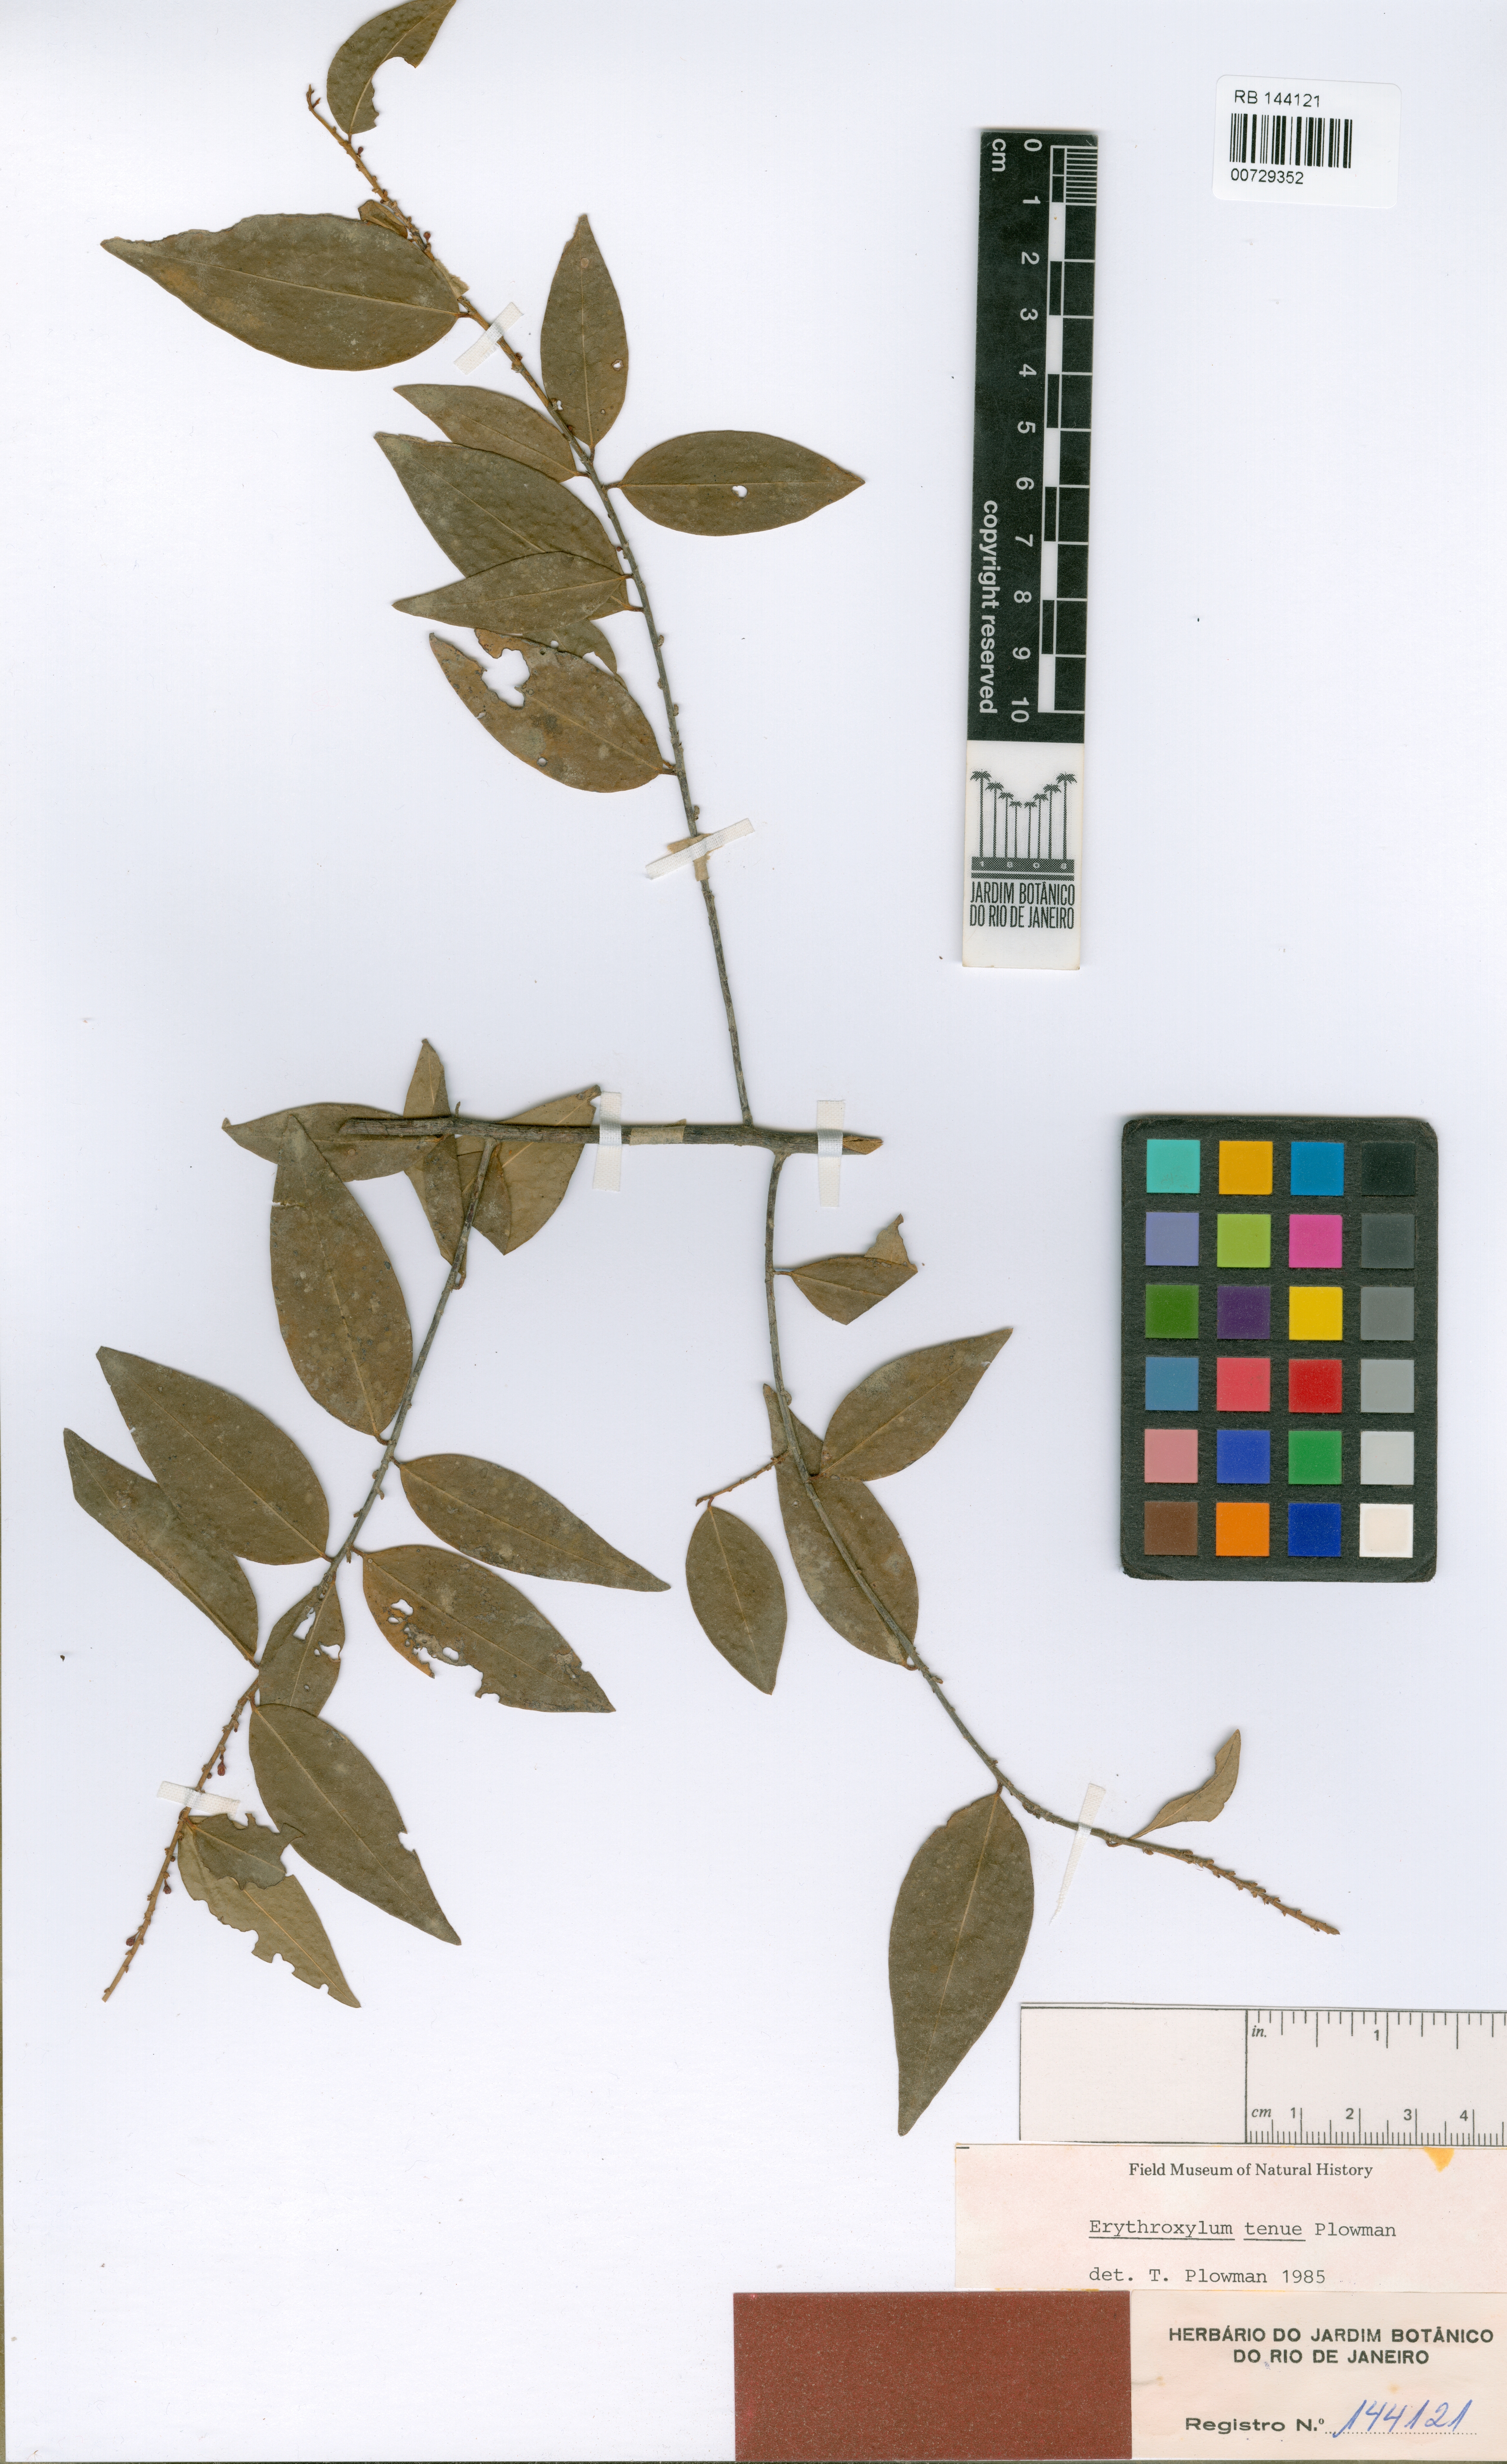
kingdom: Plantae
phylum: Tracheophyta
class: Magnoliopsida
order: Malpighiales
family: Erythroxylaceae
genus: Erythroxylum
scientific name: Erythroxylum tenue
